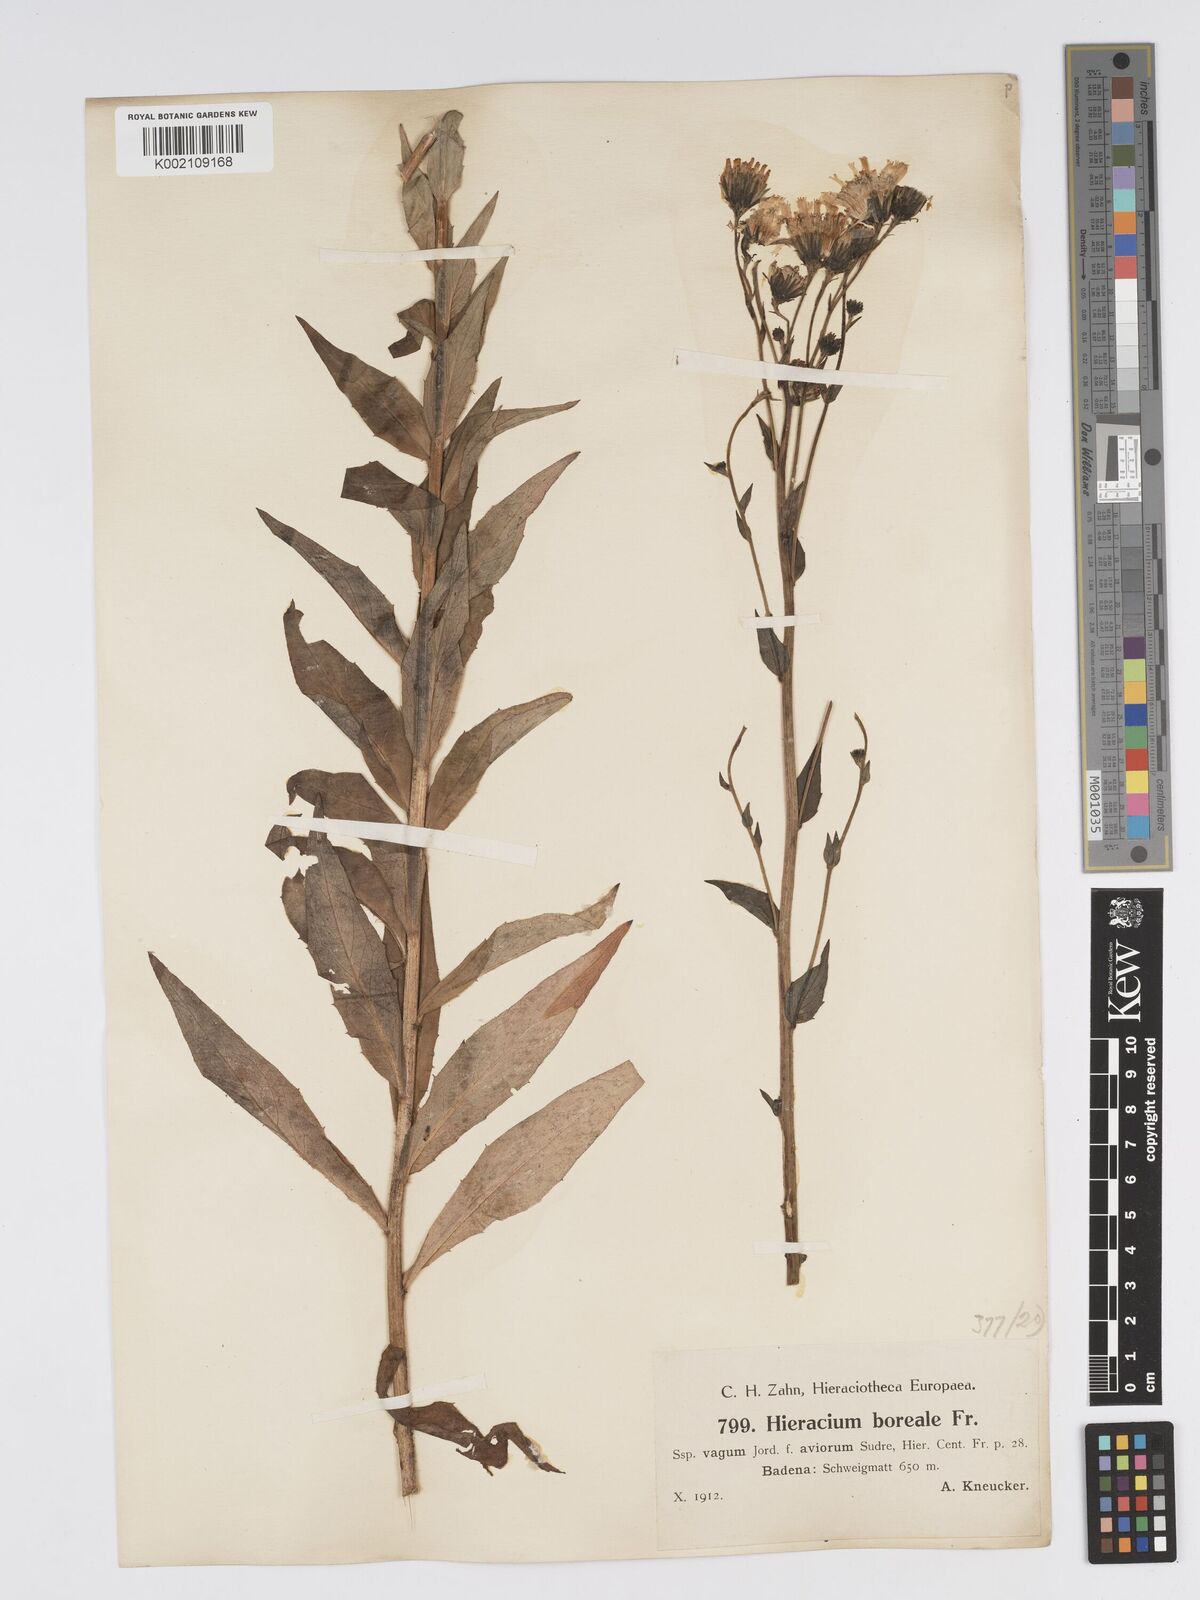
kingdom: Plantae
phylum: Tracheophyta
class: Magnoliopsida
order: Asterales
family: Asteraceae
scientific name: Asteraceae
